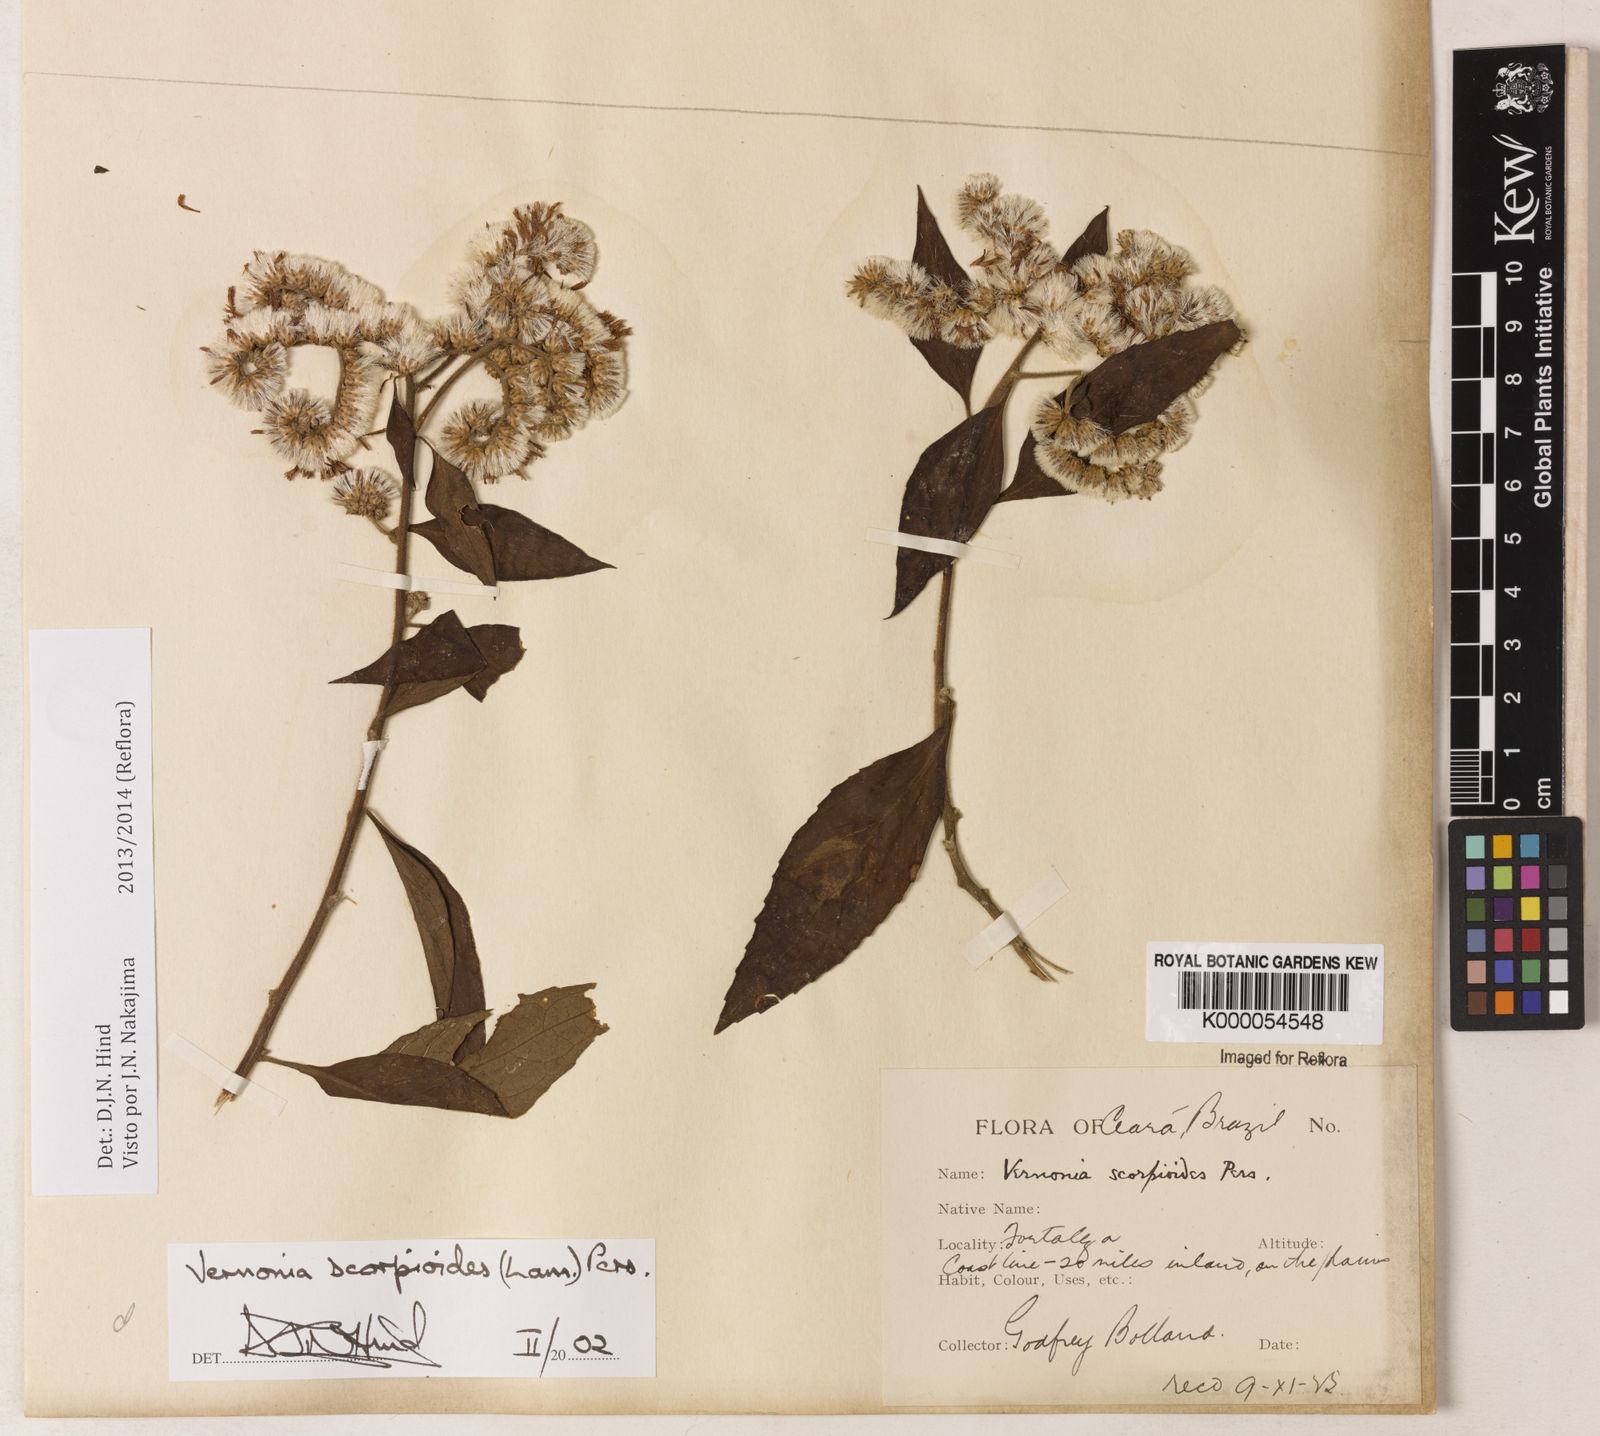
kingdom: Plantae
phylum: Tracheophyta
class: Magnoliopsida
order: Asterales
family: Asteraceae
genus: Cyrtocymura
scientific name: Cyrtocymura scorpioides
